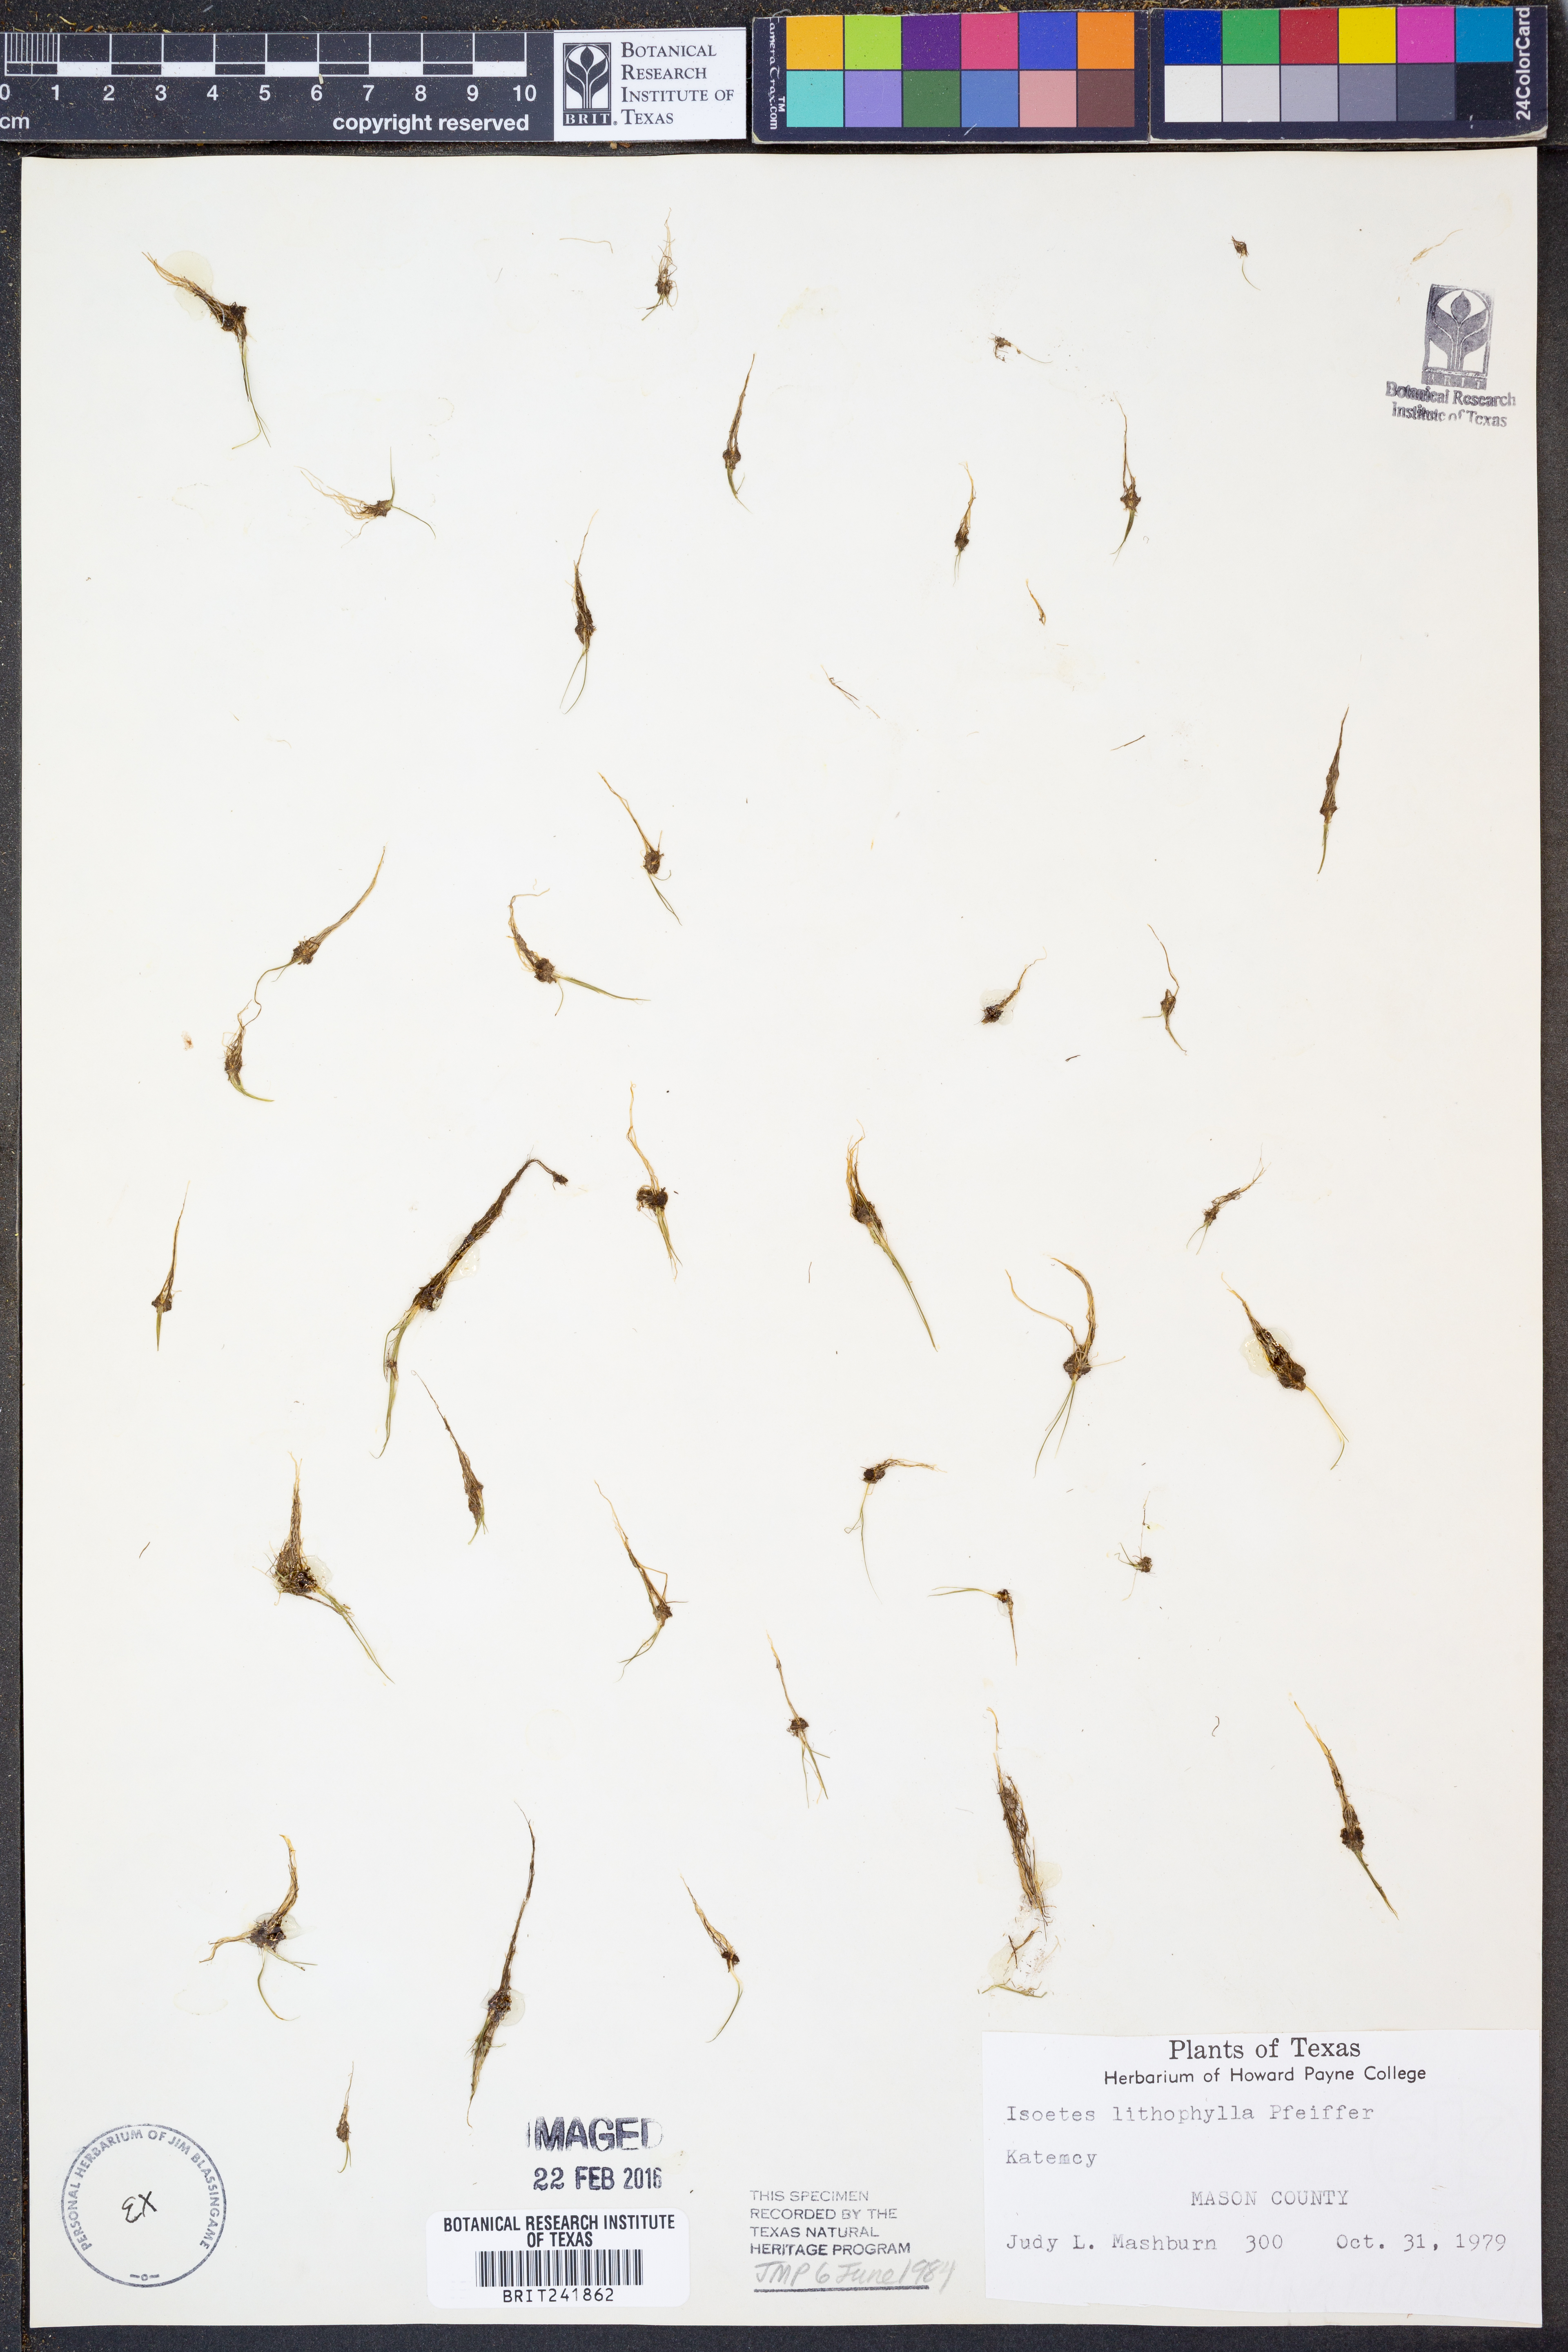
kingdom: Plantae
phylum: Tracheophyta
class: Lycopodiopsida
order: Isoetales
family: Isoetaceae
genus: Isoetes
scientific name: Isoetes lithophila
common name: Rock quillwort
